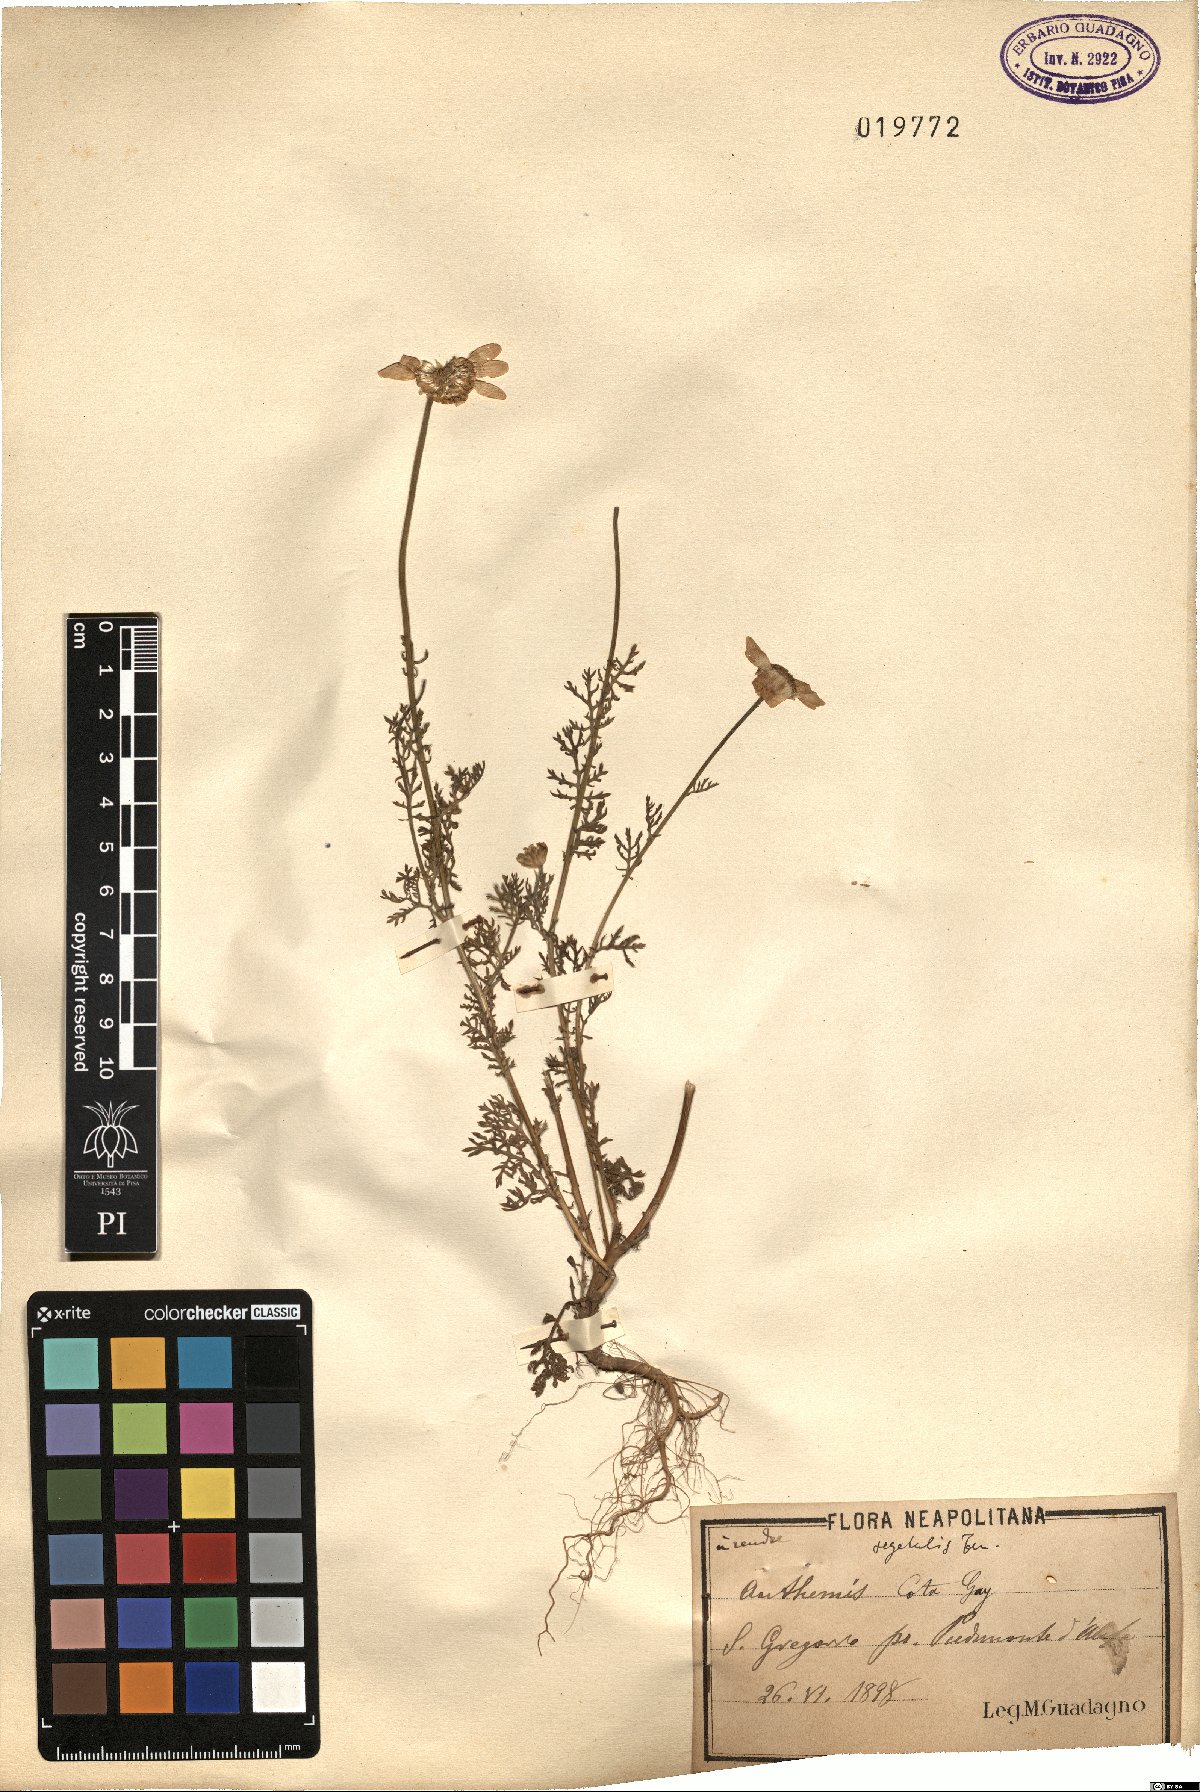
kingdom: Plantae
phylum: Tracheophyta
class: Magnoliopsida
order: Asterales
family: Asteraceae
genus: Cota
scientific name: Cota altissima
